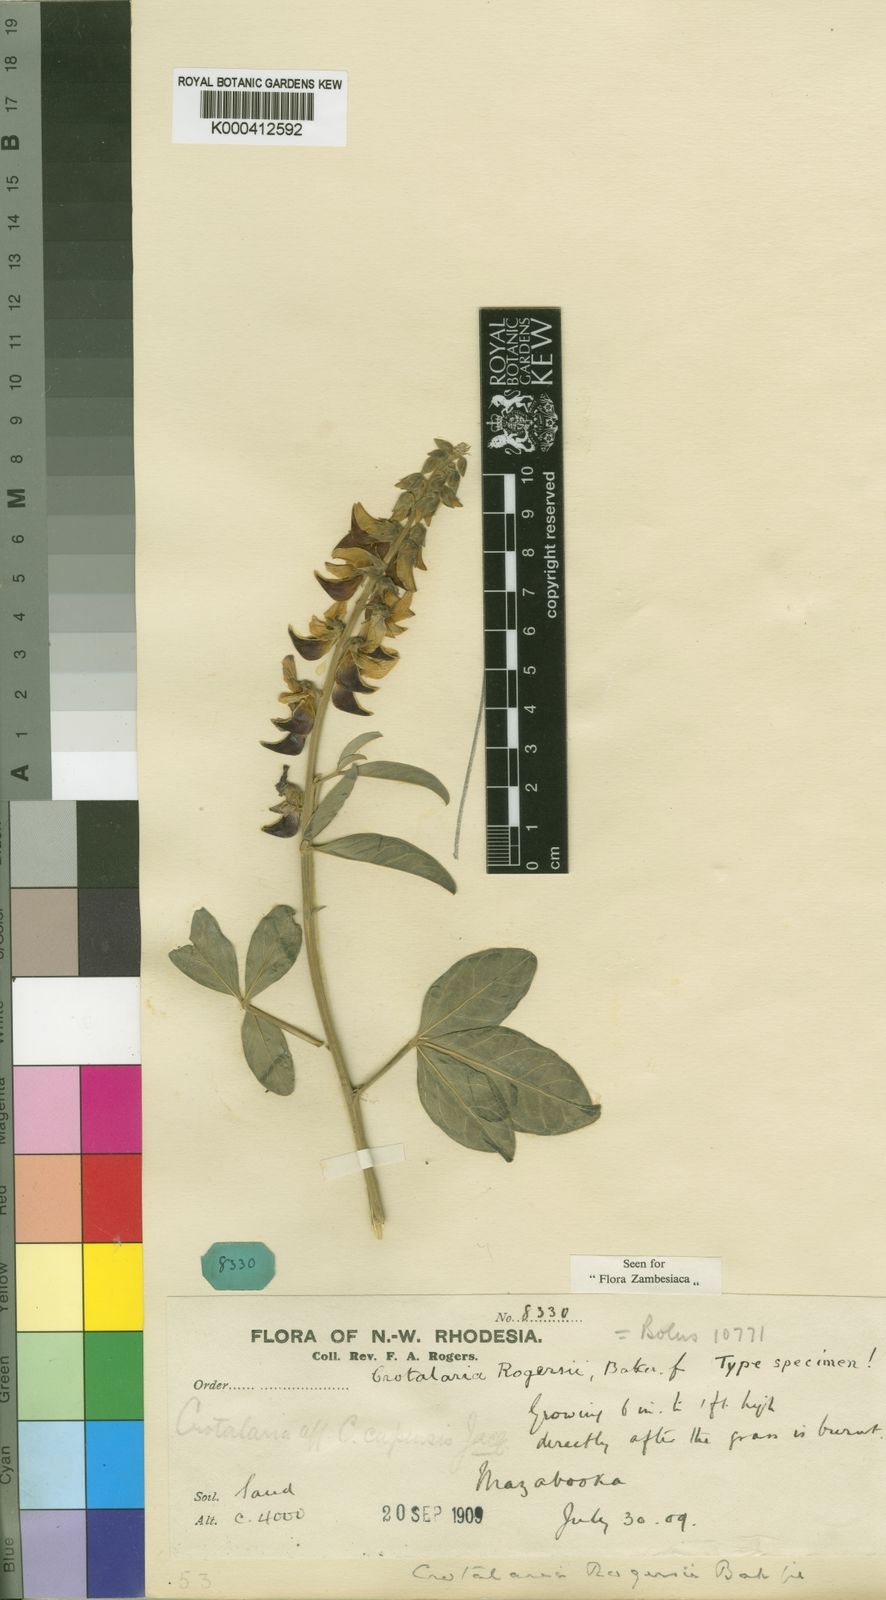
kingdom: Plantae
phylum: Tracheophyta
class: Magnoliopsida
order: Fabales
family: Fabaceae
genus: Crotalaria
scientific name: Crotalaria rogersii
